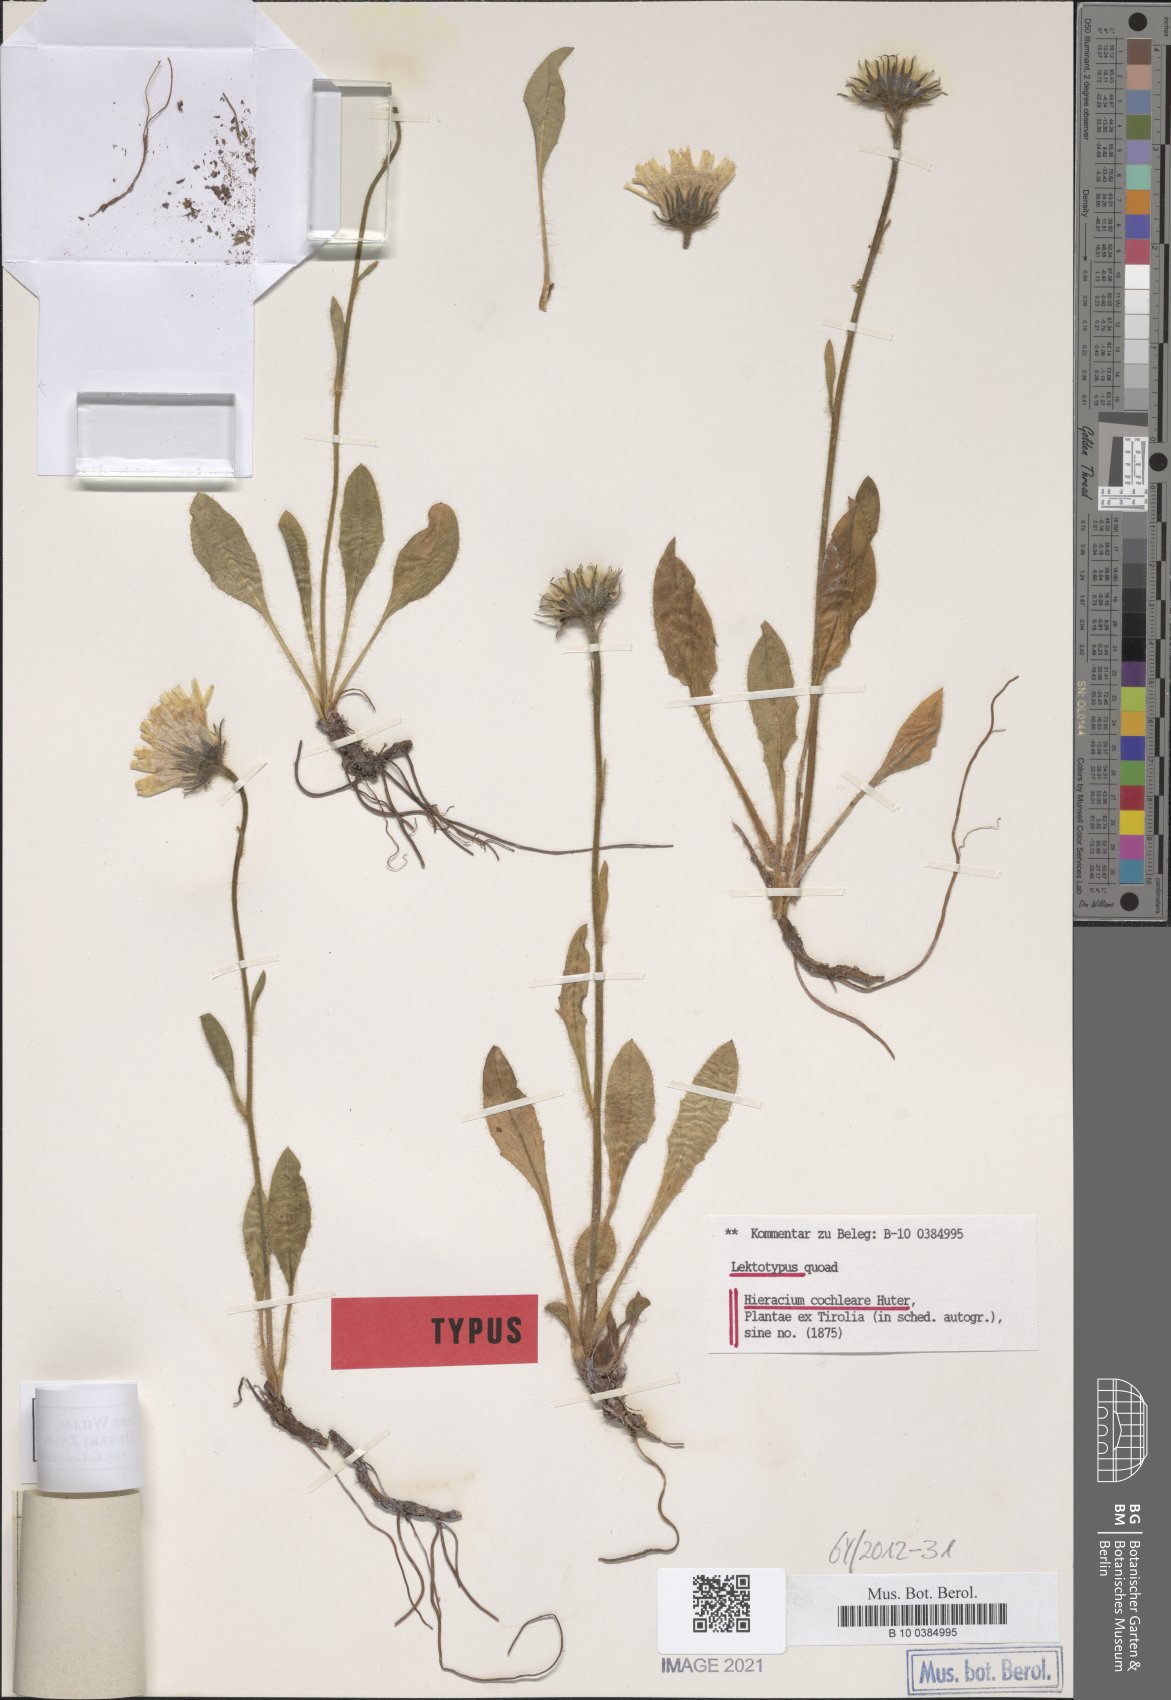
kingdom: Plantae
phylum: Tracheophyta
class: Magnoliopsida
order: Asterales
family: Asteraceae
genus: Hieracium
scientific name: Hieracium nigrescens
